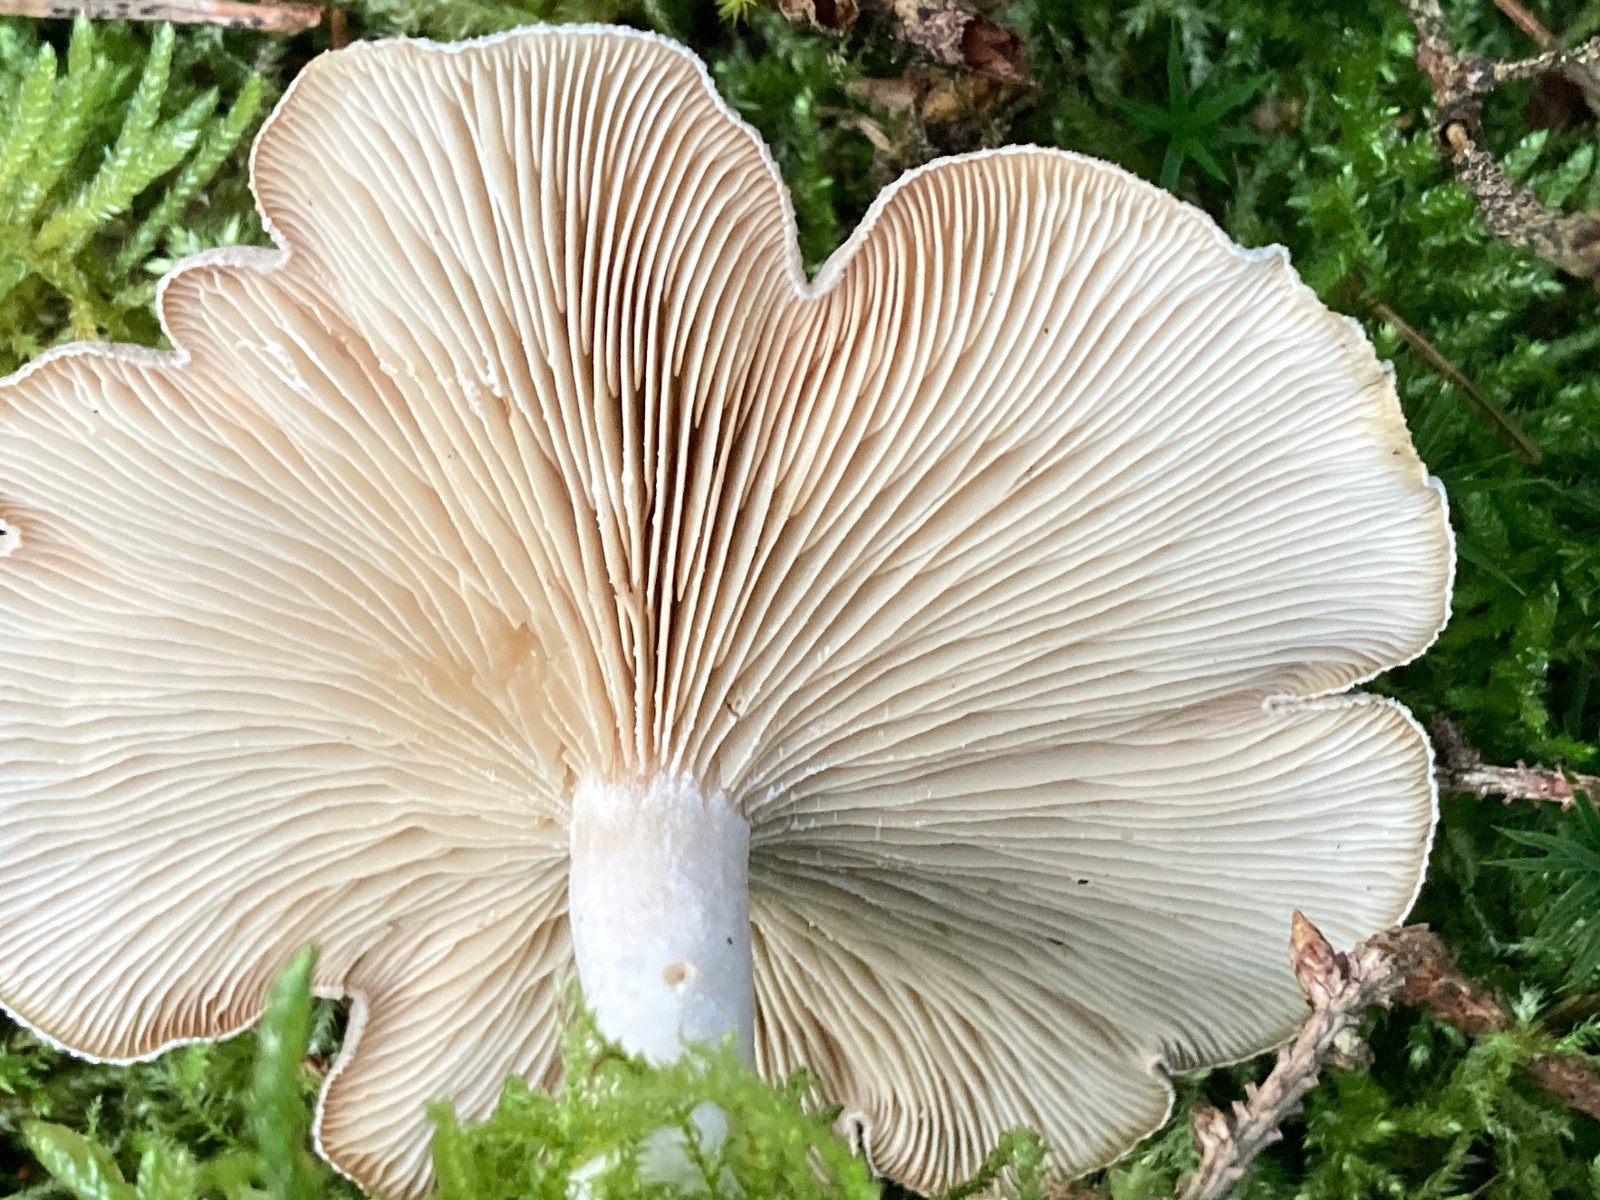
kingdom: Fungi
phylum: Basidiomycota
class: Agaricomycetes
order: Agaricales
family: Tricholomataceae
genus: Clitocybe
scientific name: Clitocybe odora
